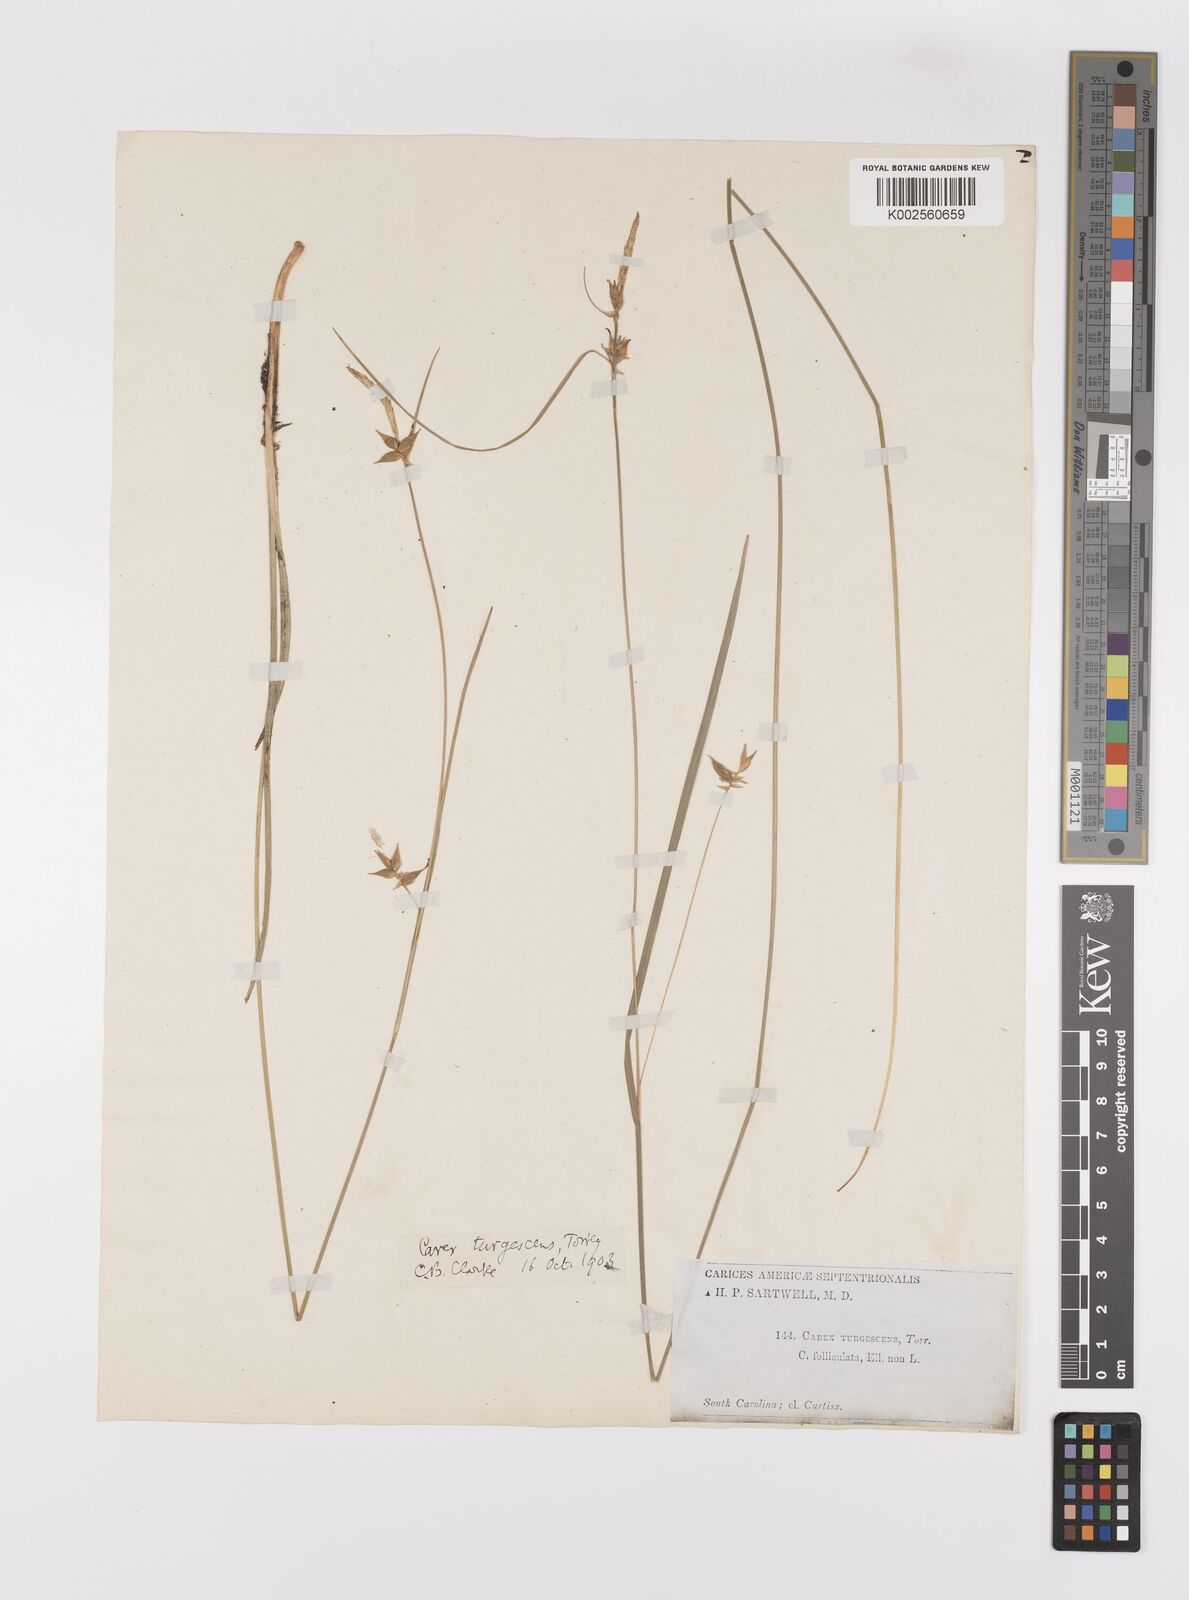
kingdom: Plantae
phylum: Tracheophyta
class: Liliopsida
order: Poales
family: Cyperaceae
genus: Carex
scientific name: Carex turgescens
